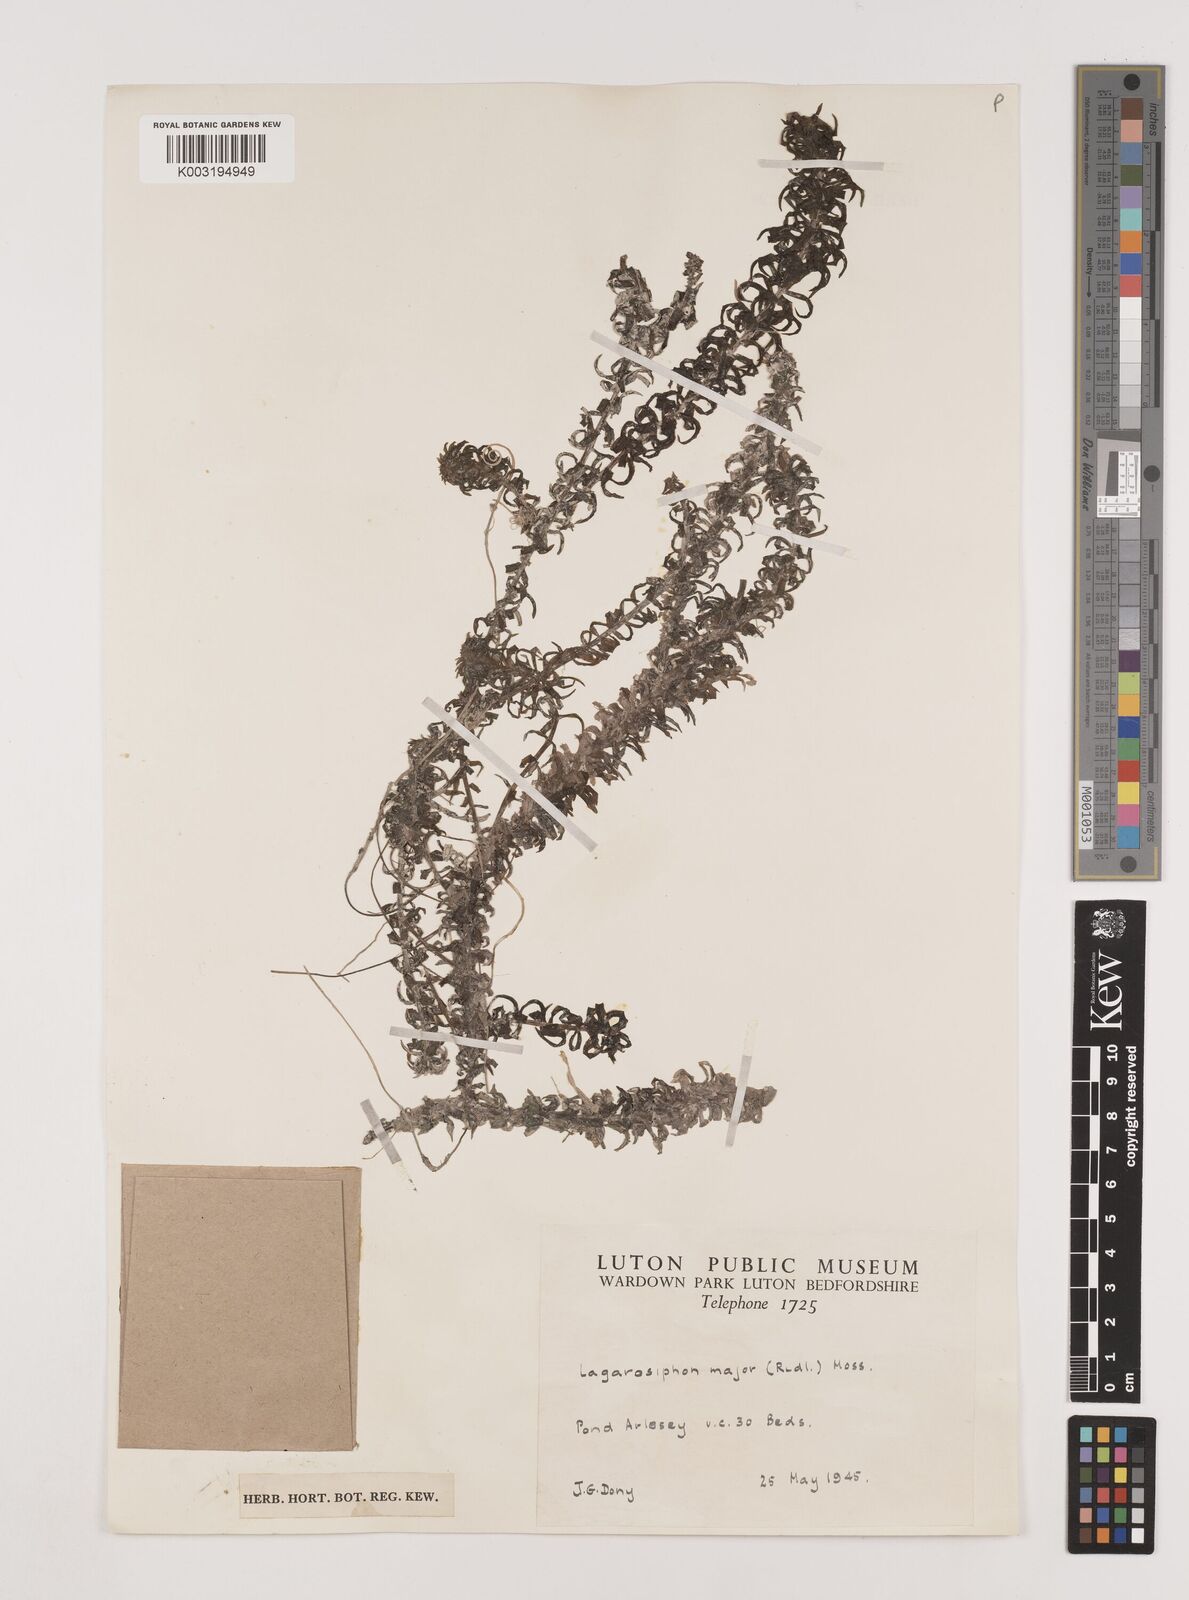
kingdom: Plantae
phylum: Tracheophyta
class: Liliopsida
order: Alismatales
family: Hydrocharitaceae
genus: Lagarosiphon
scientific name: Lagarosiphon major
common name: Curly waterweed
